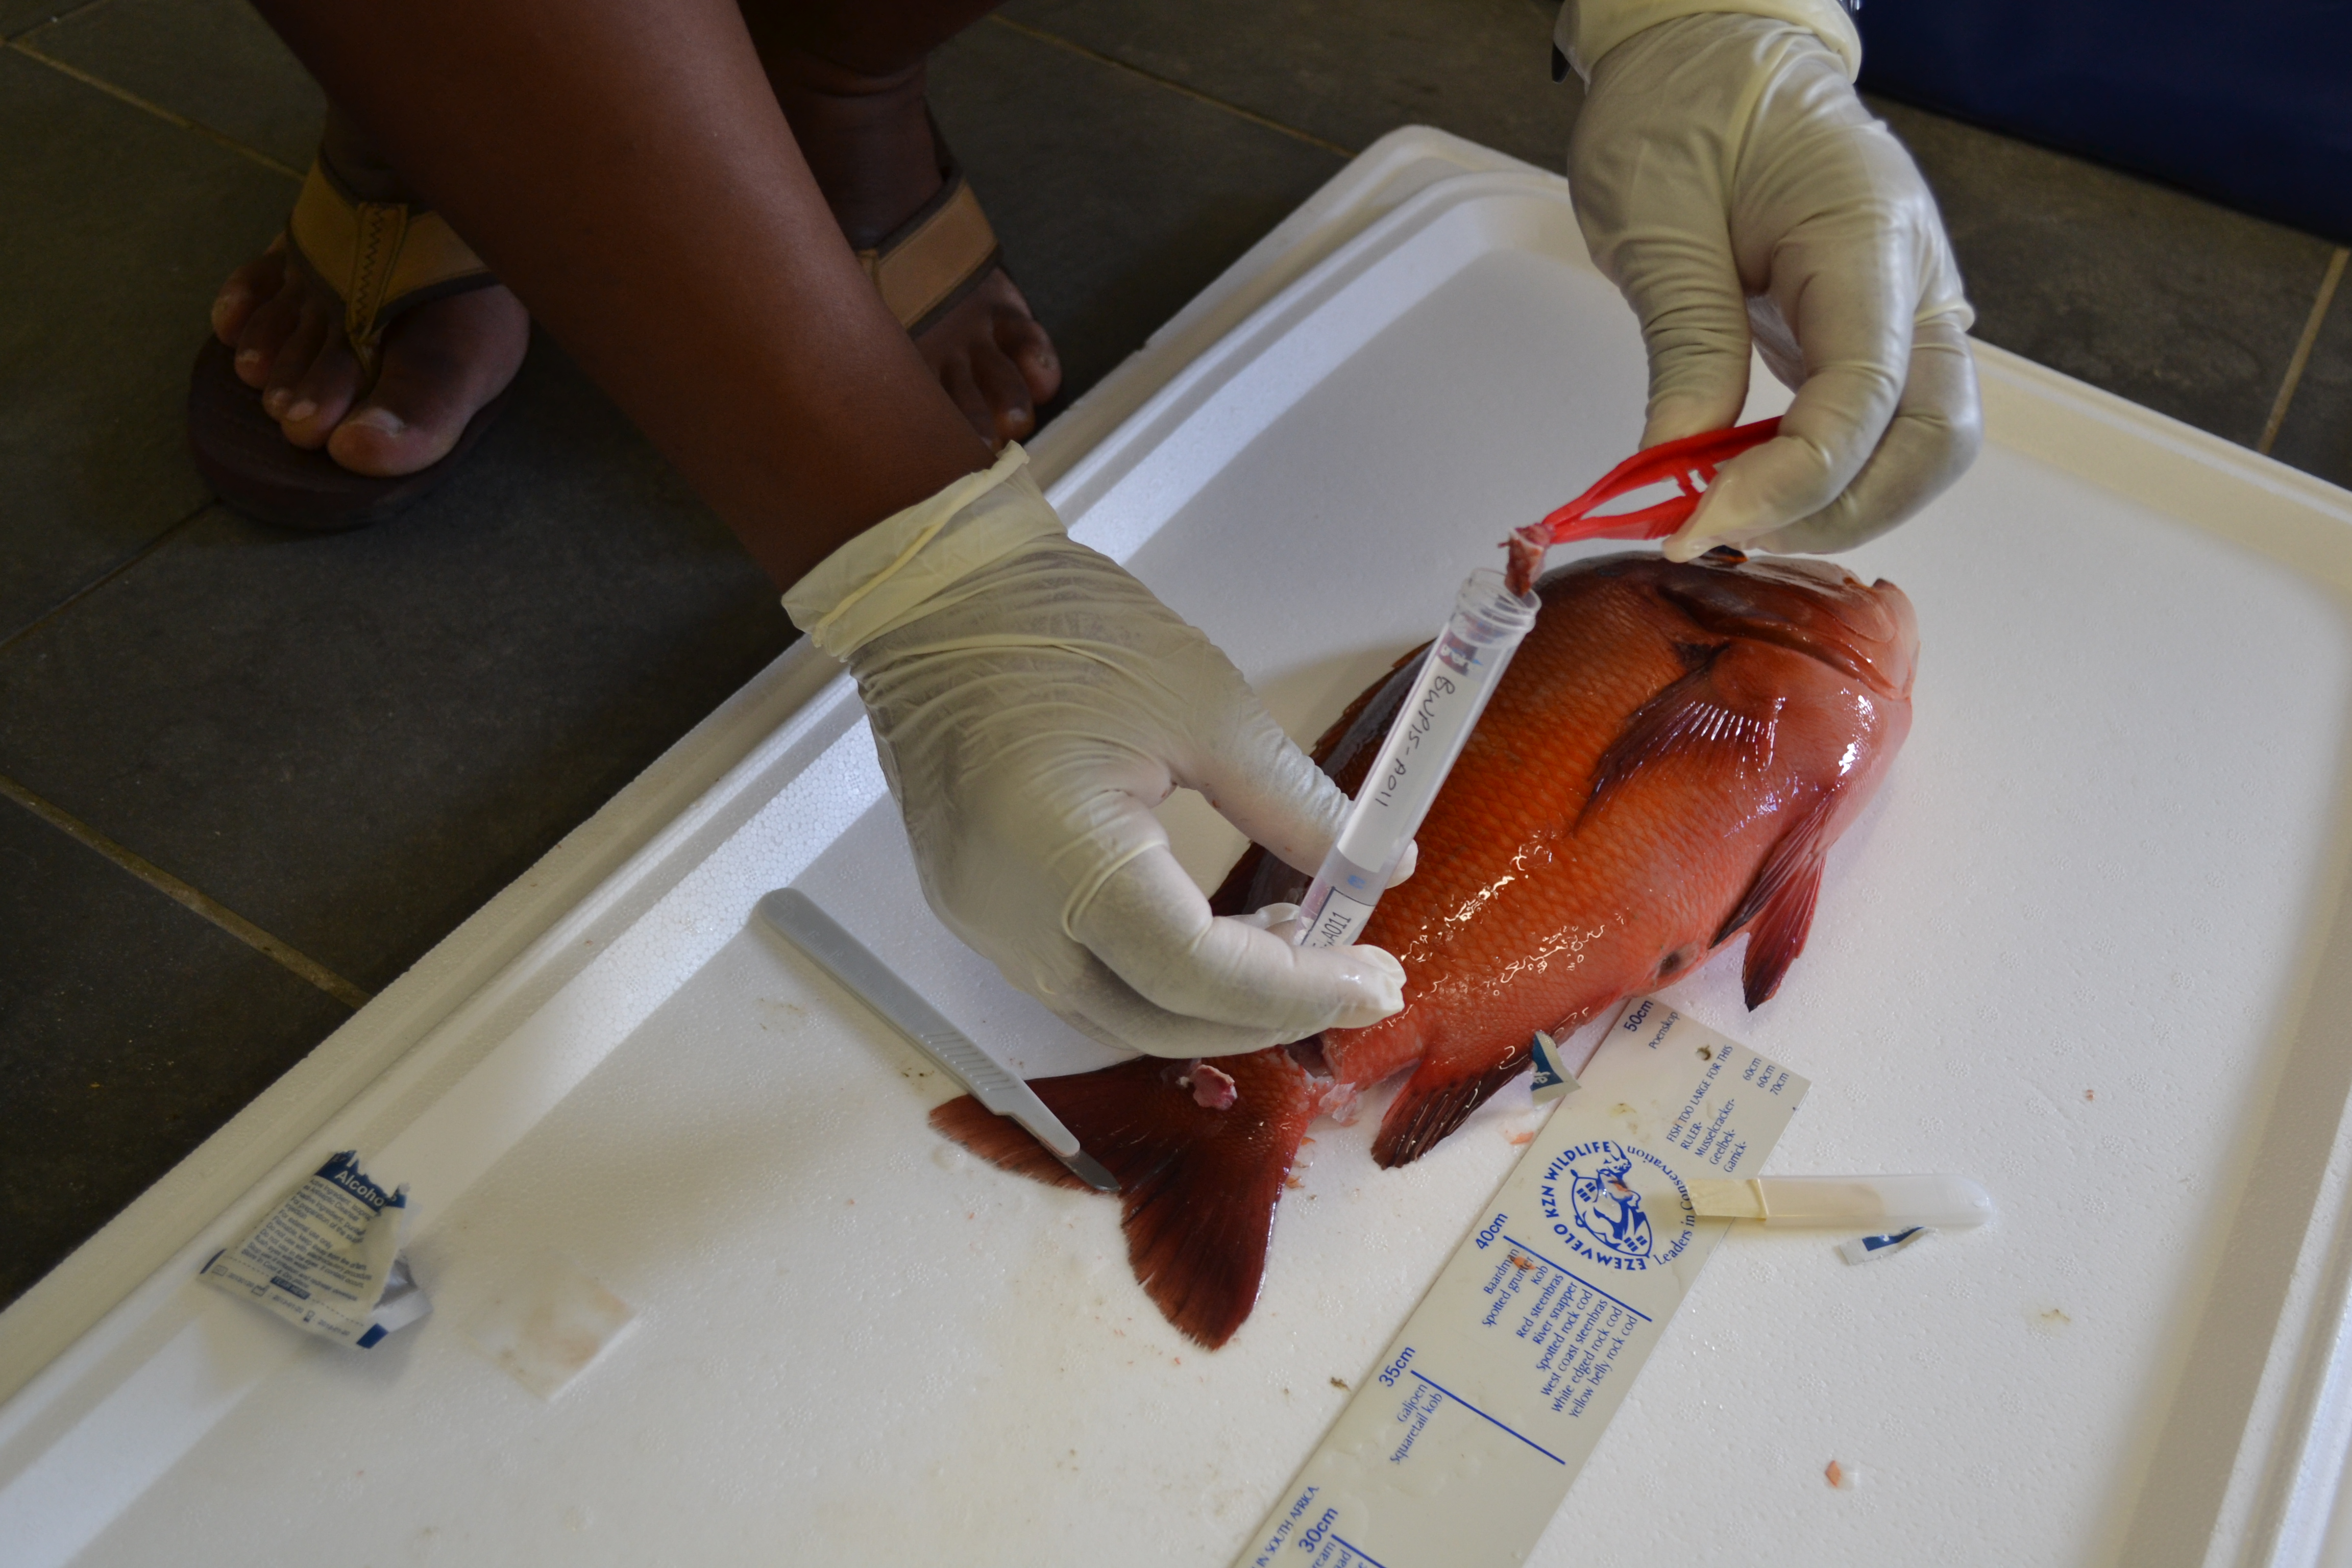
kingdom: Animalia
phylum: Chordata
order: Perciformes
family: Sparidae
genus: Chrysoblephus
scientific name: Chrysoblephus laticeps
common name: Roman seabream
